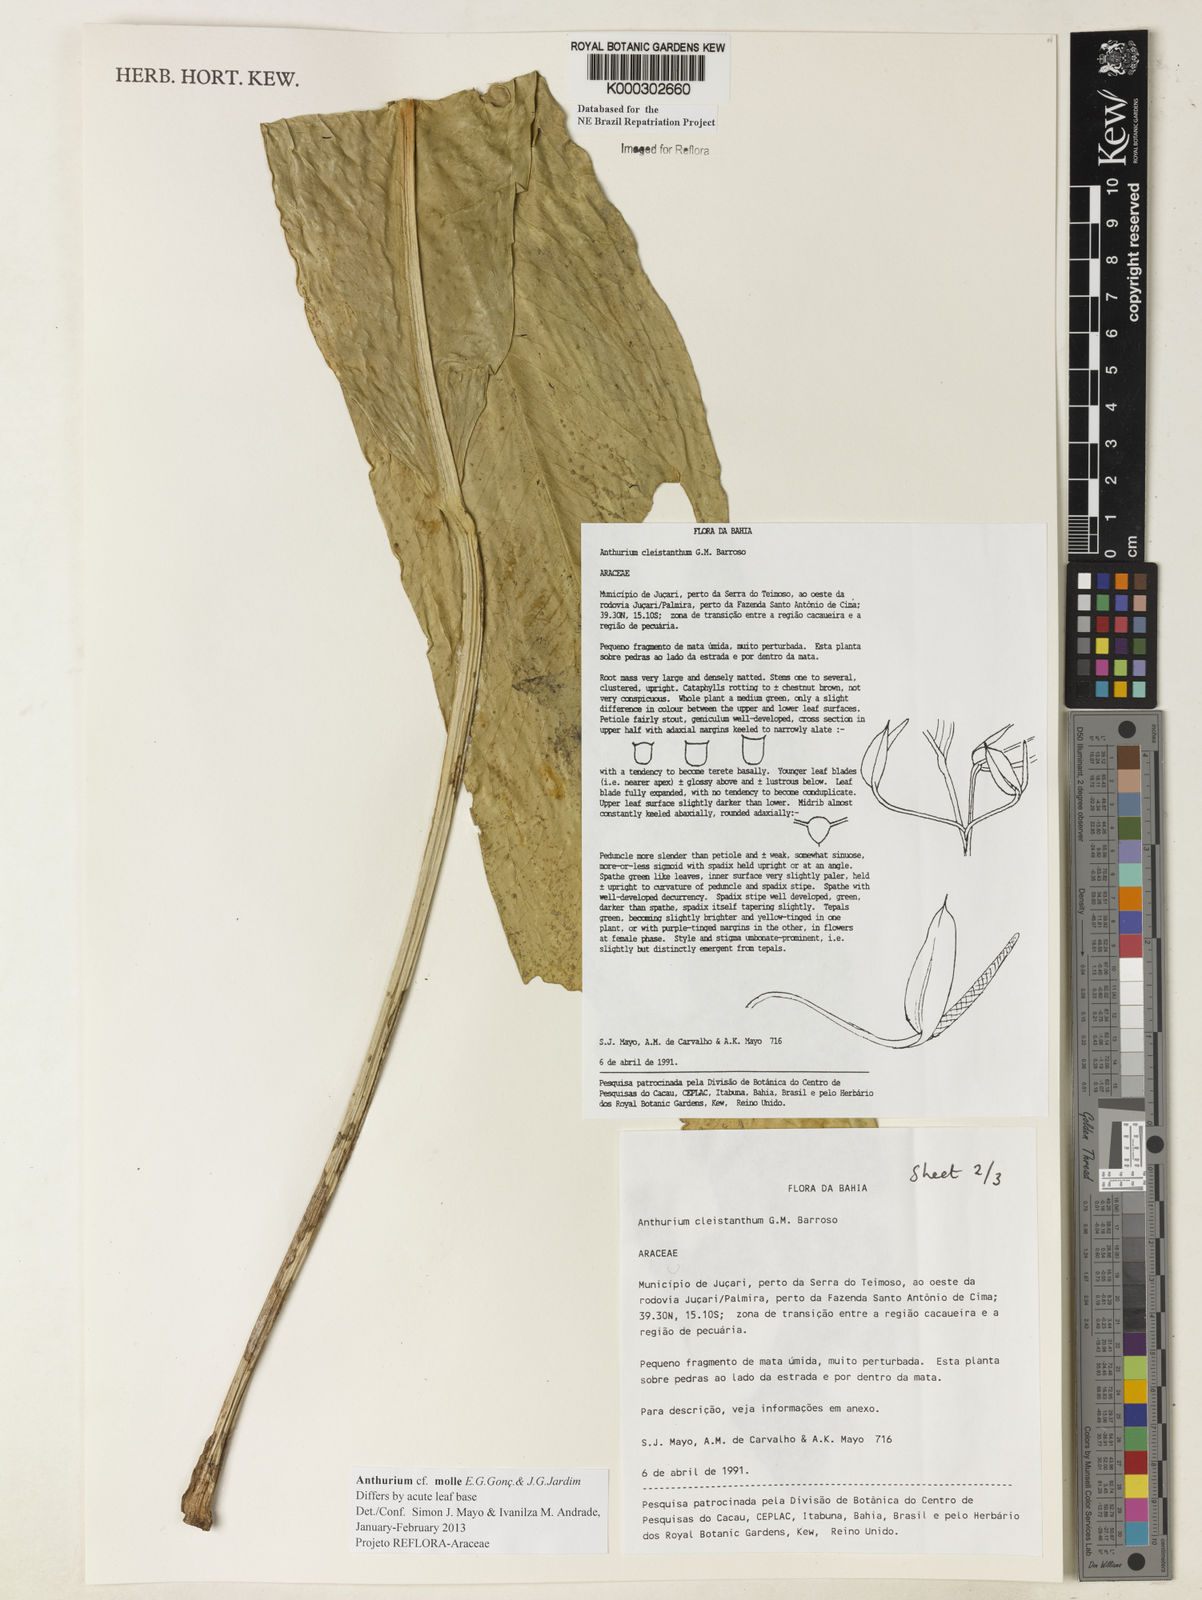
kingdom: Plantae
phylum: Tracheophyta
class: Liliopsida
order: Alismatales
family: Araceae
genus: Anthurium
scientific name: Anthurium cleistanthum
